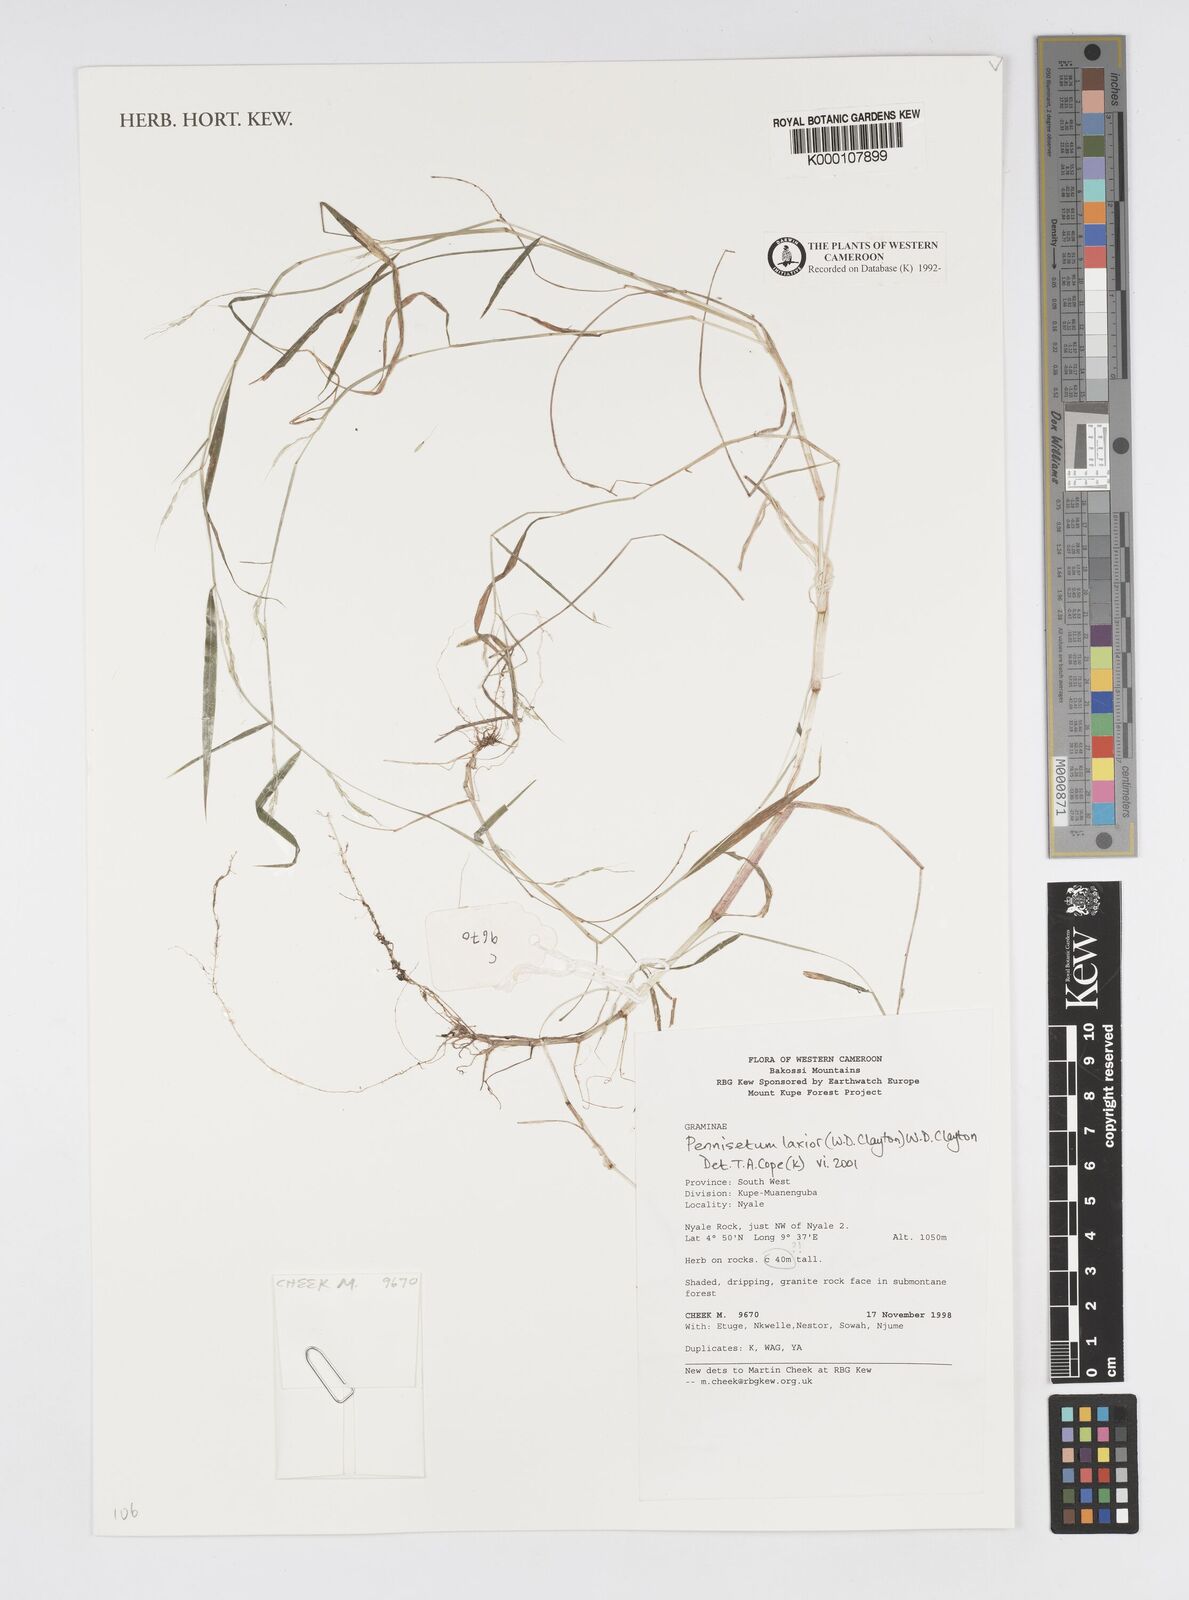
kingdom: Plantae
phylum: Tracheophyta
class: Liliopsida
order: Poales
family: Poaceae
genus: Cenchrus
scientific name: Cenchrus Pennisetum spec
